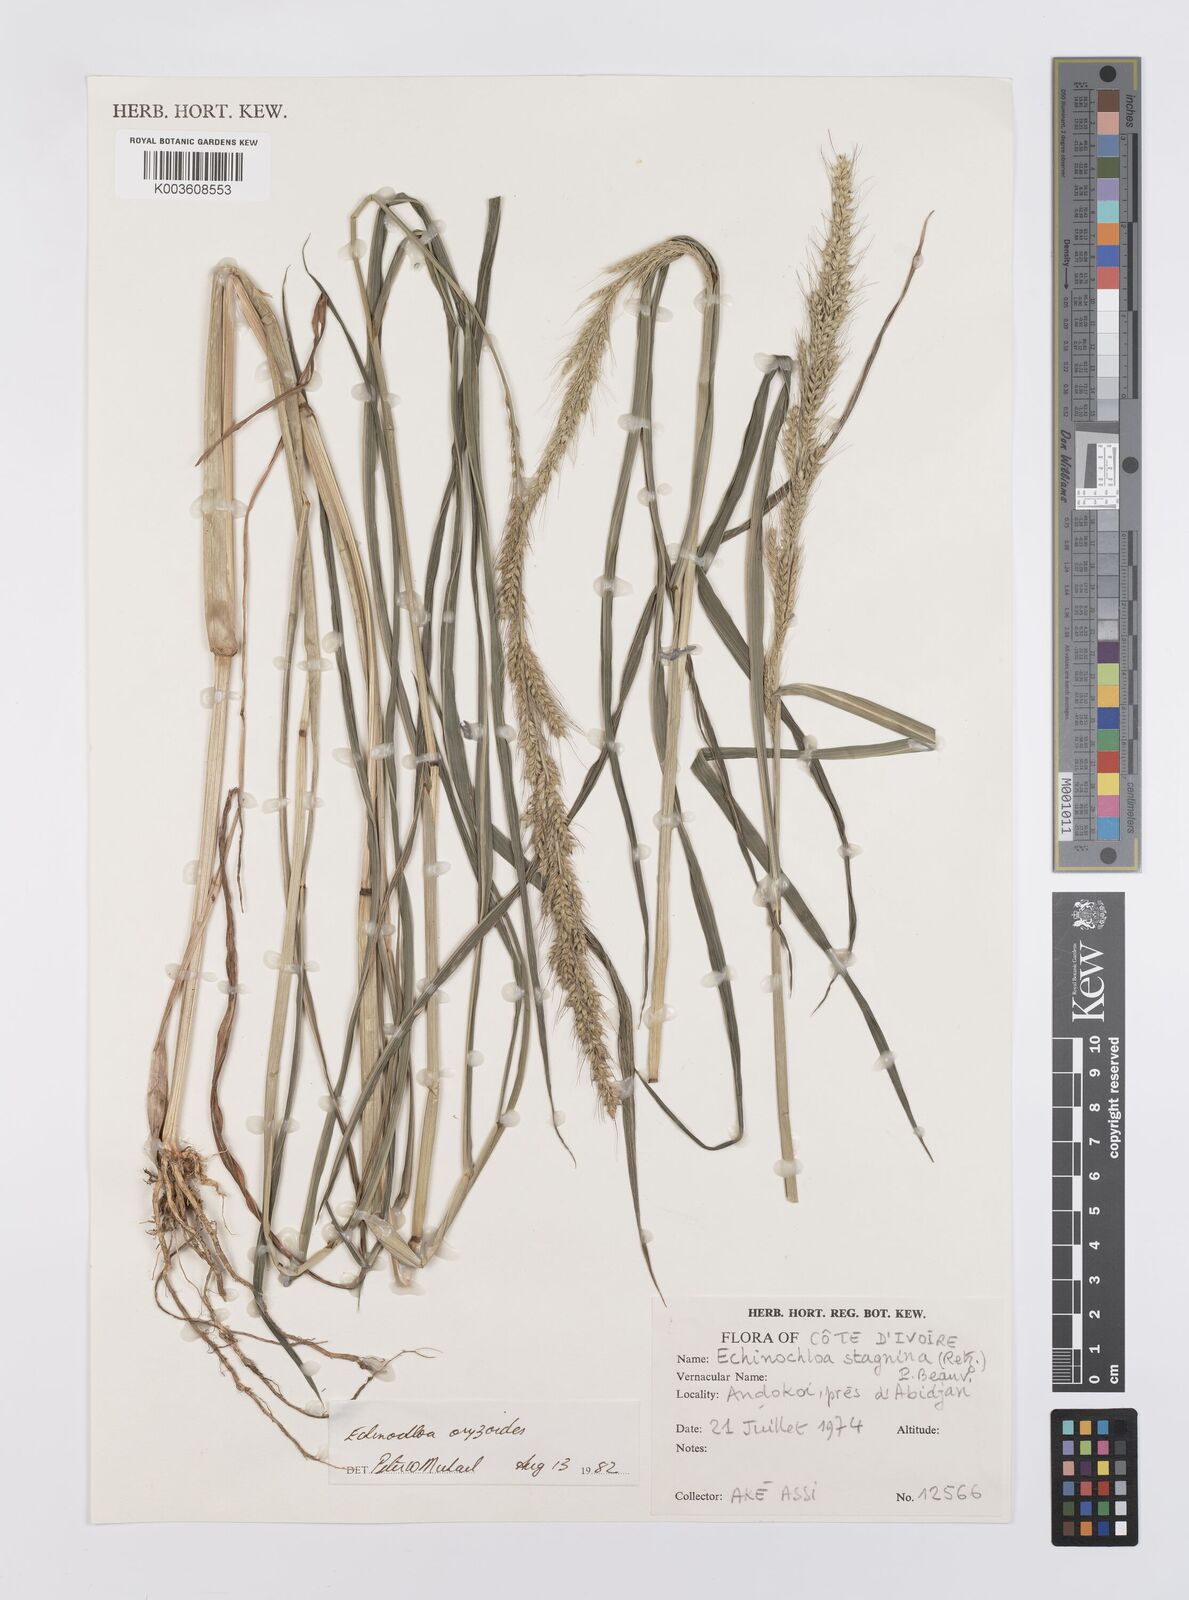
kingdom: Plantae
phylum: Tracheophyta
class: Liliopsida
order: Poales
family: Poaceae
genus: Echinochloa
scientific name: Echinochloa oryzoides
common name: Early water grass
